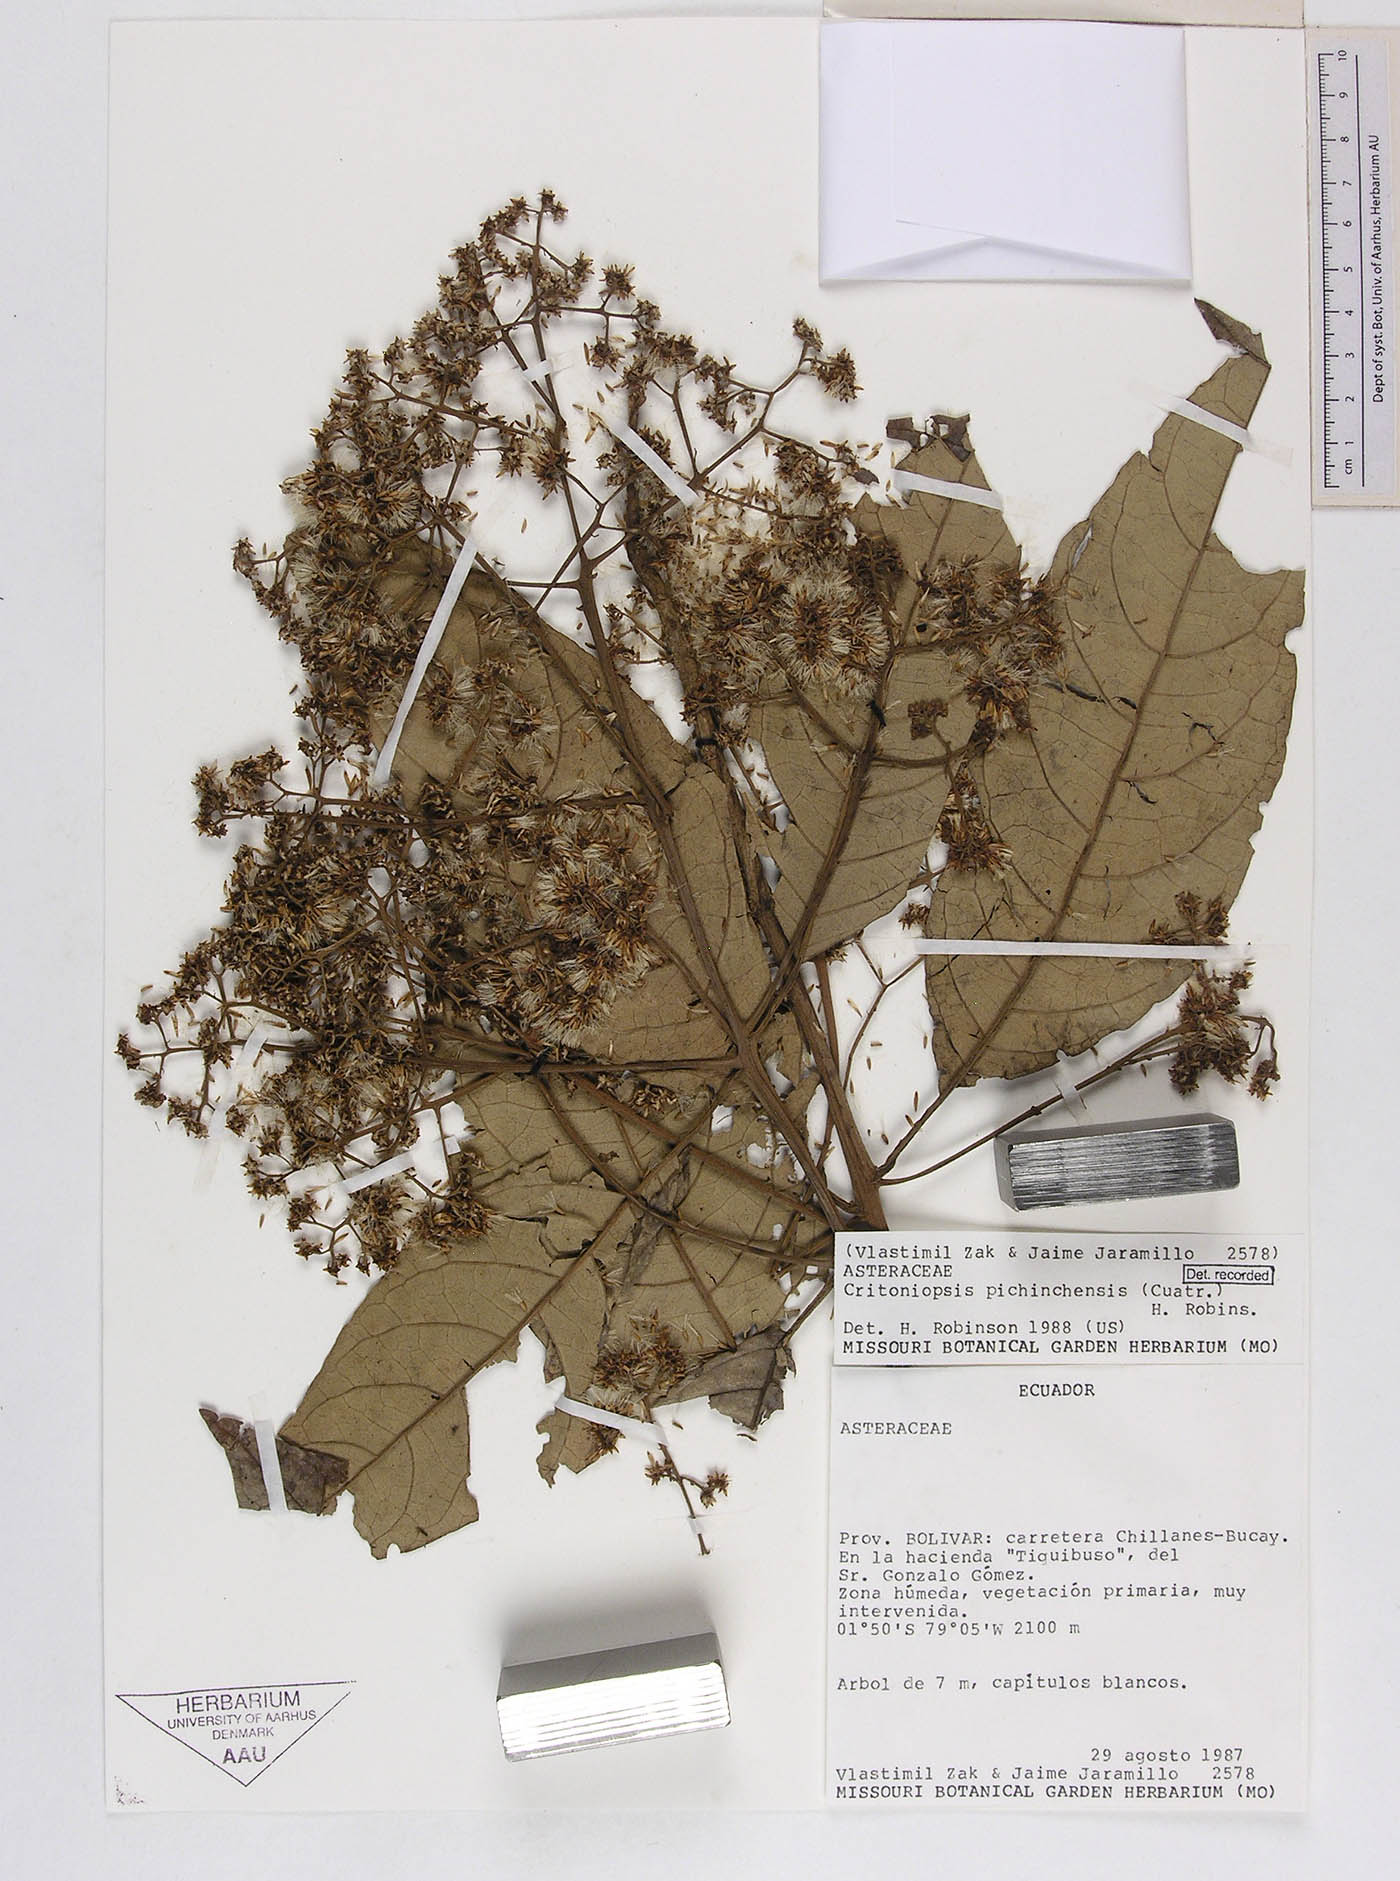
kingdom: Plantae
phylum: Tracheophyta
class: Magnoliopsida
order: Asterales
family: Asteraceae
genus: Critoniopsis
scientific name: Critoniopsis sodiroi
